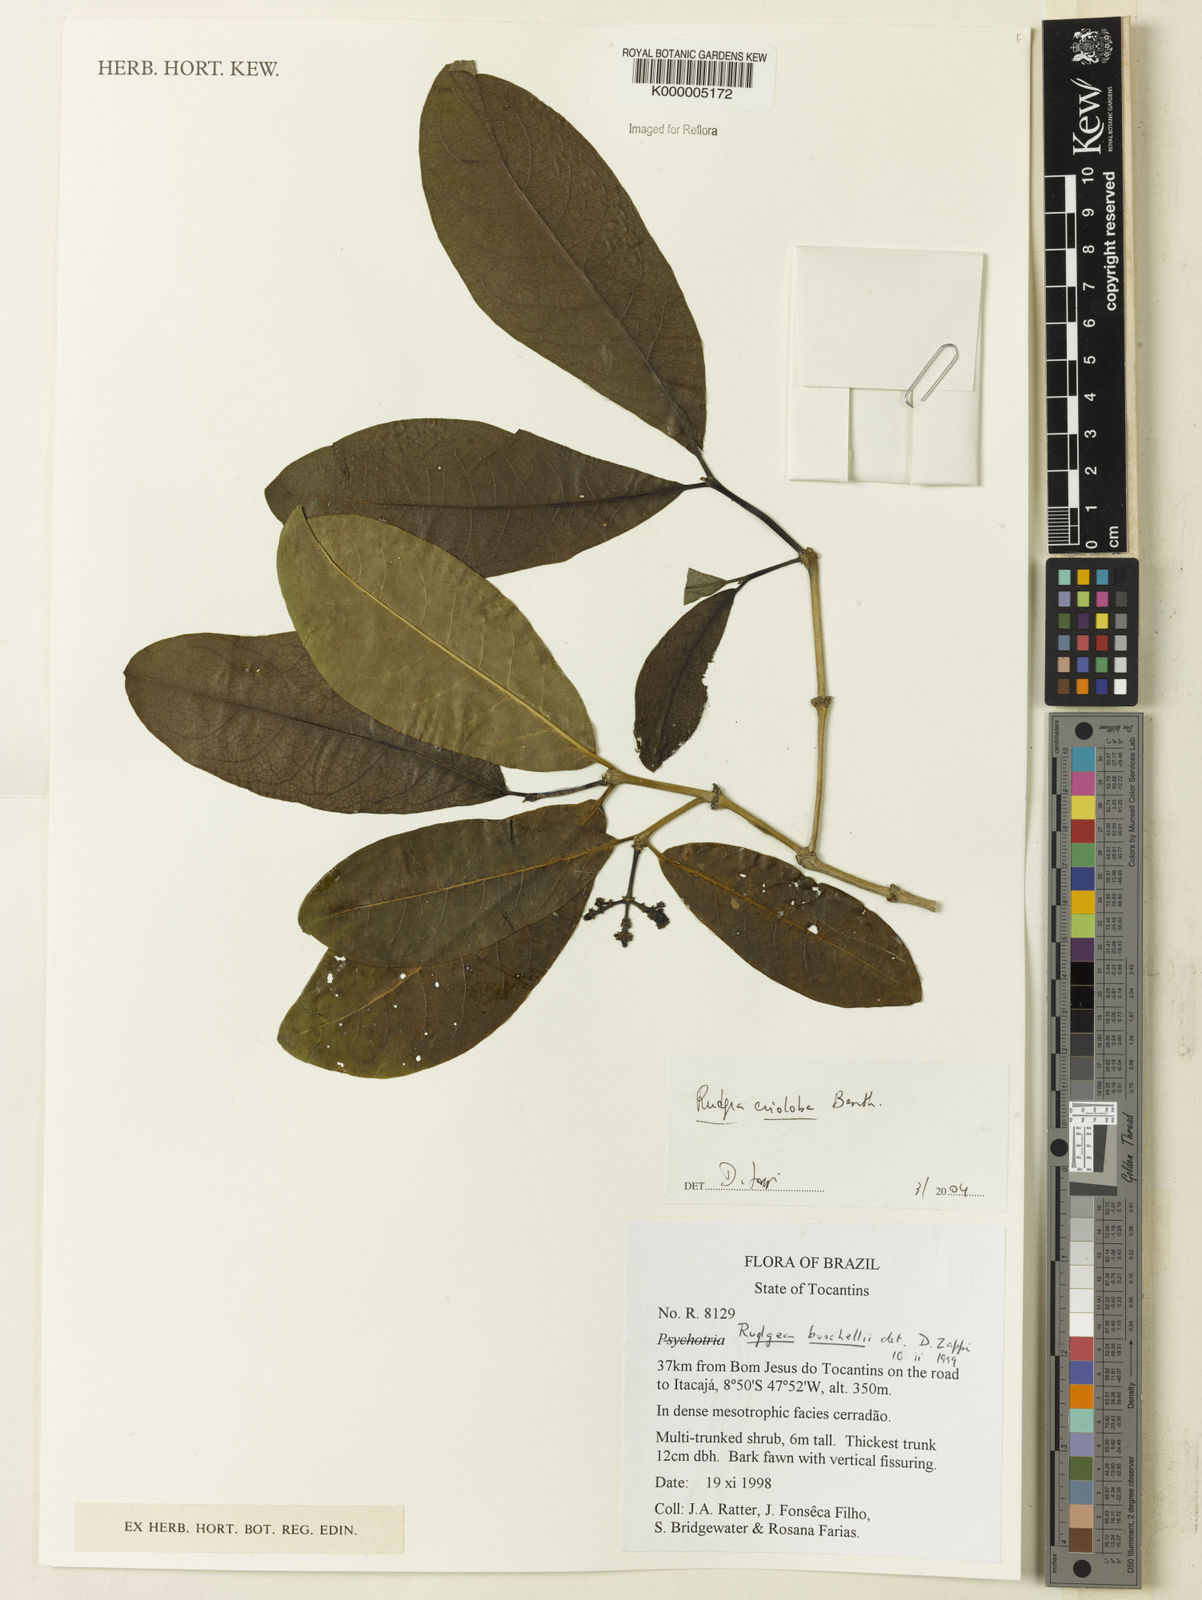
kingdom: Plantae
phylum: Tracheophyta
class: Magnoliopsida
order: Gentianales
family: Rubiaceae
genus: Rudgea
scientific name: Rudgea erioloba
